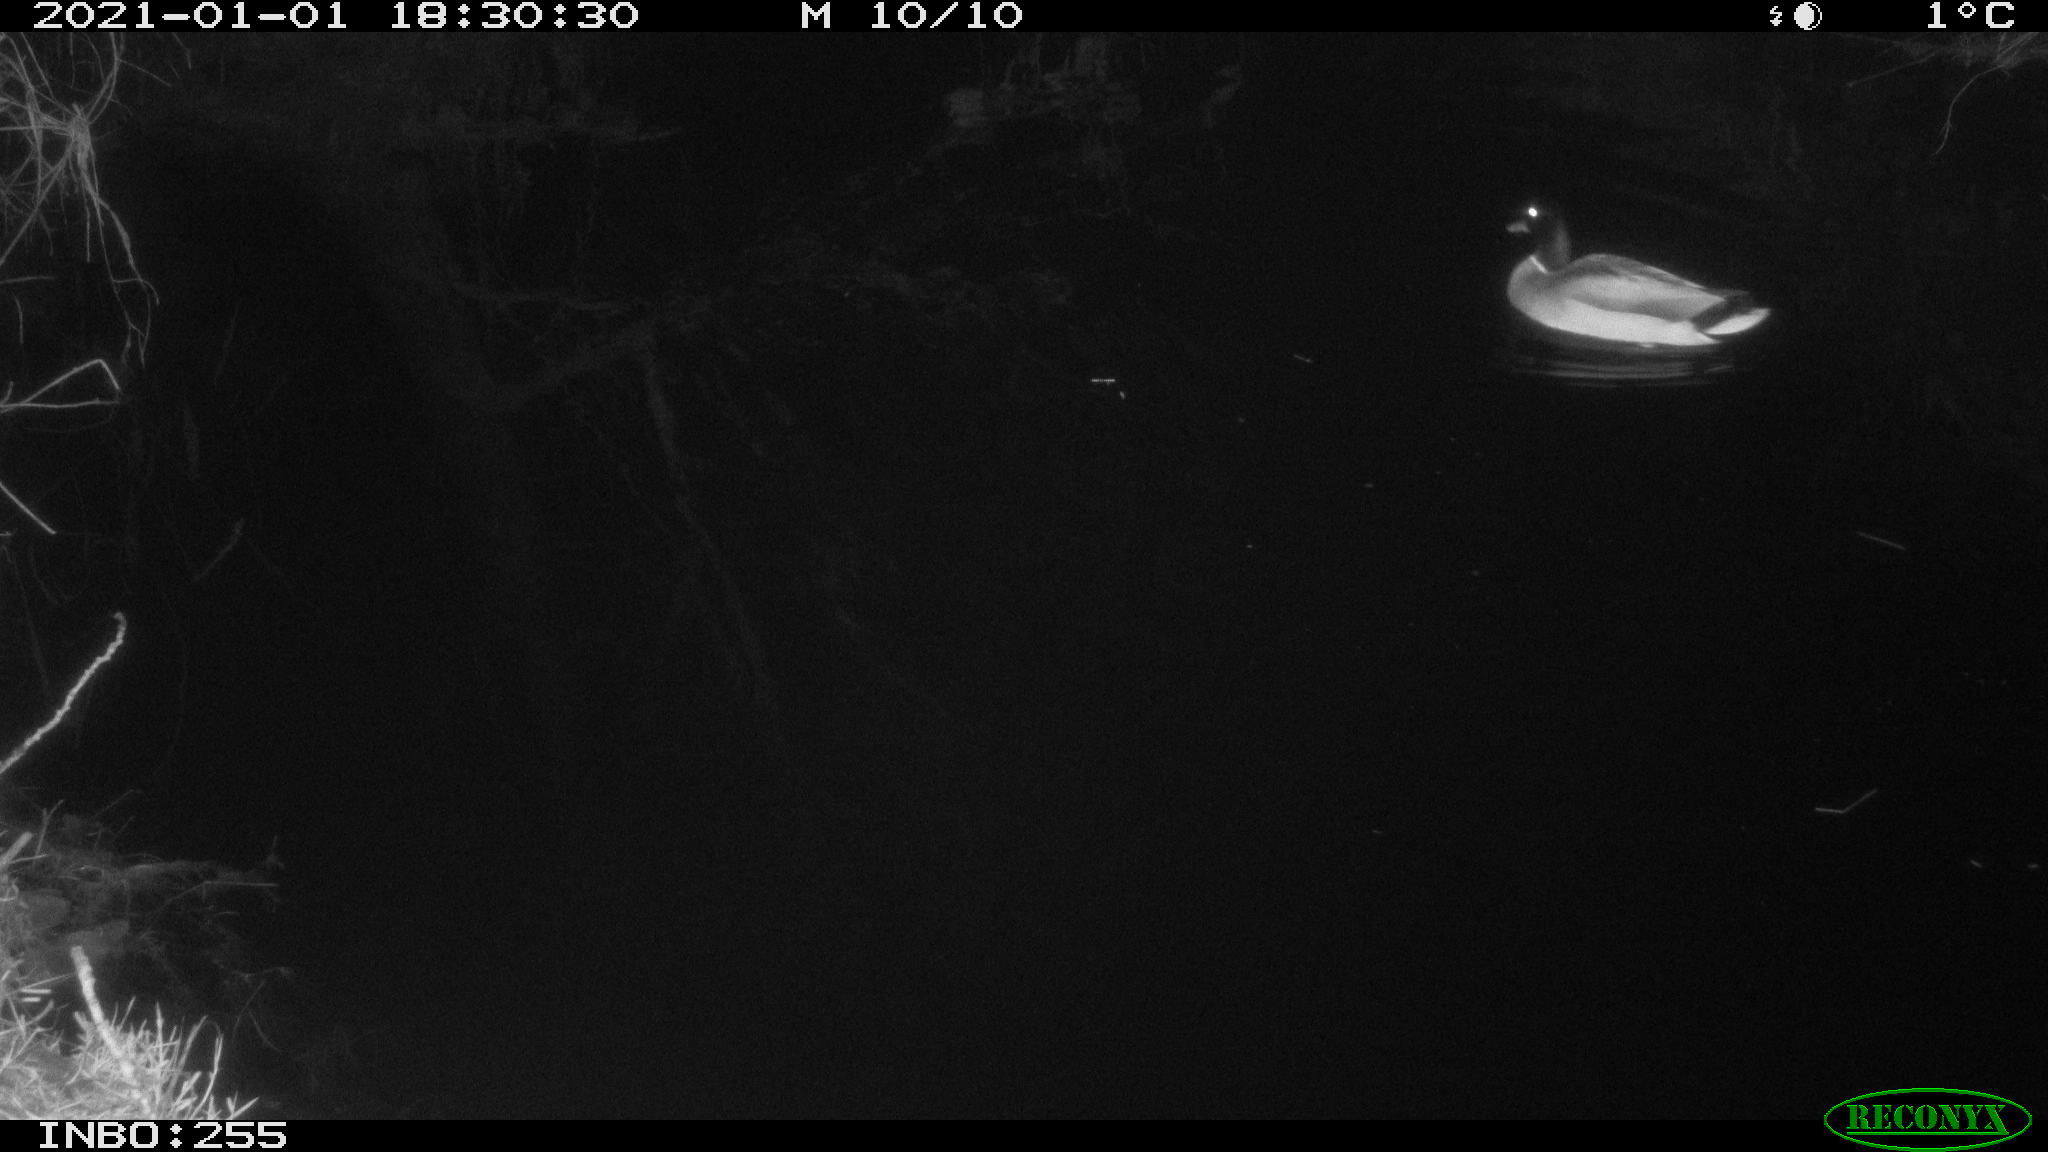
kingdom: Animalia
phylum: Chordata
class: Aves
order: Anseriformes
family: Anatidae
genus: Anas
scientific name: Anas platyrhynchos
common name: Mallard
